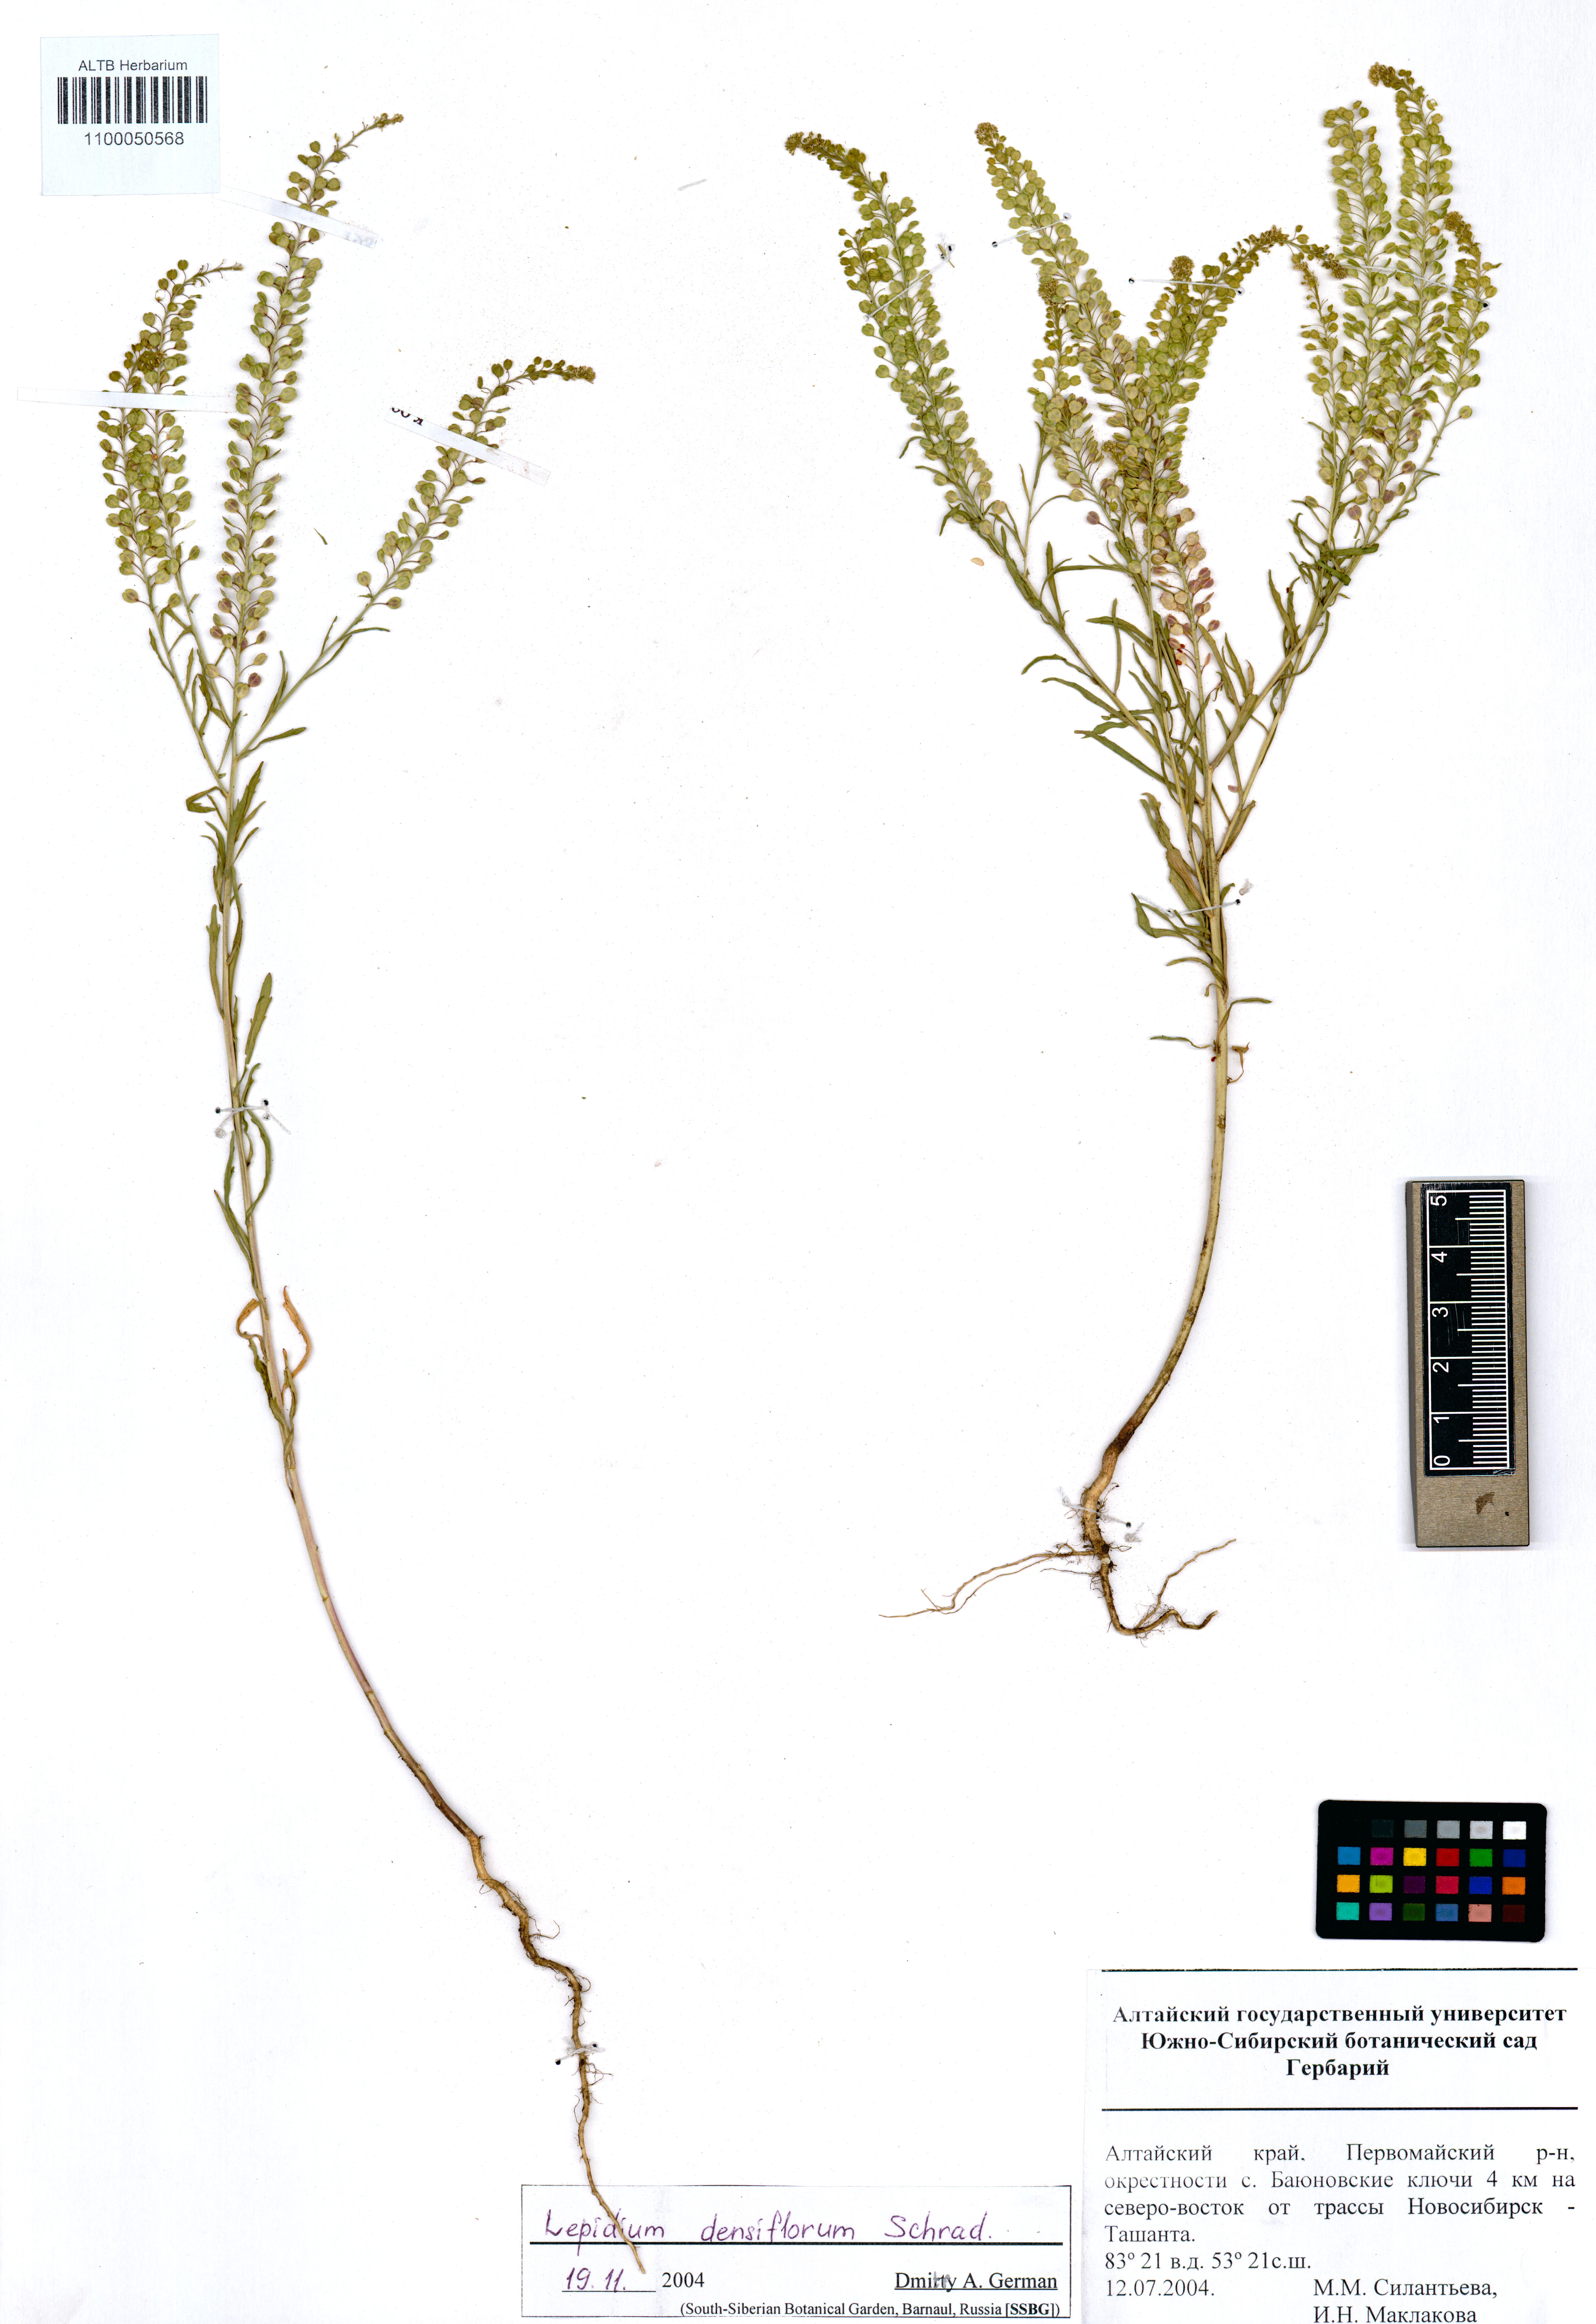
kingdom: Plantae
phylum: Tracheophyta
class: Magnoliopsida
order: Brassicales
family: Brassicaceae
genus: Lepidium
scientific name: Lepidium densiflorum
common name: Miner's pepperwort
